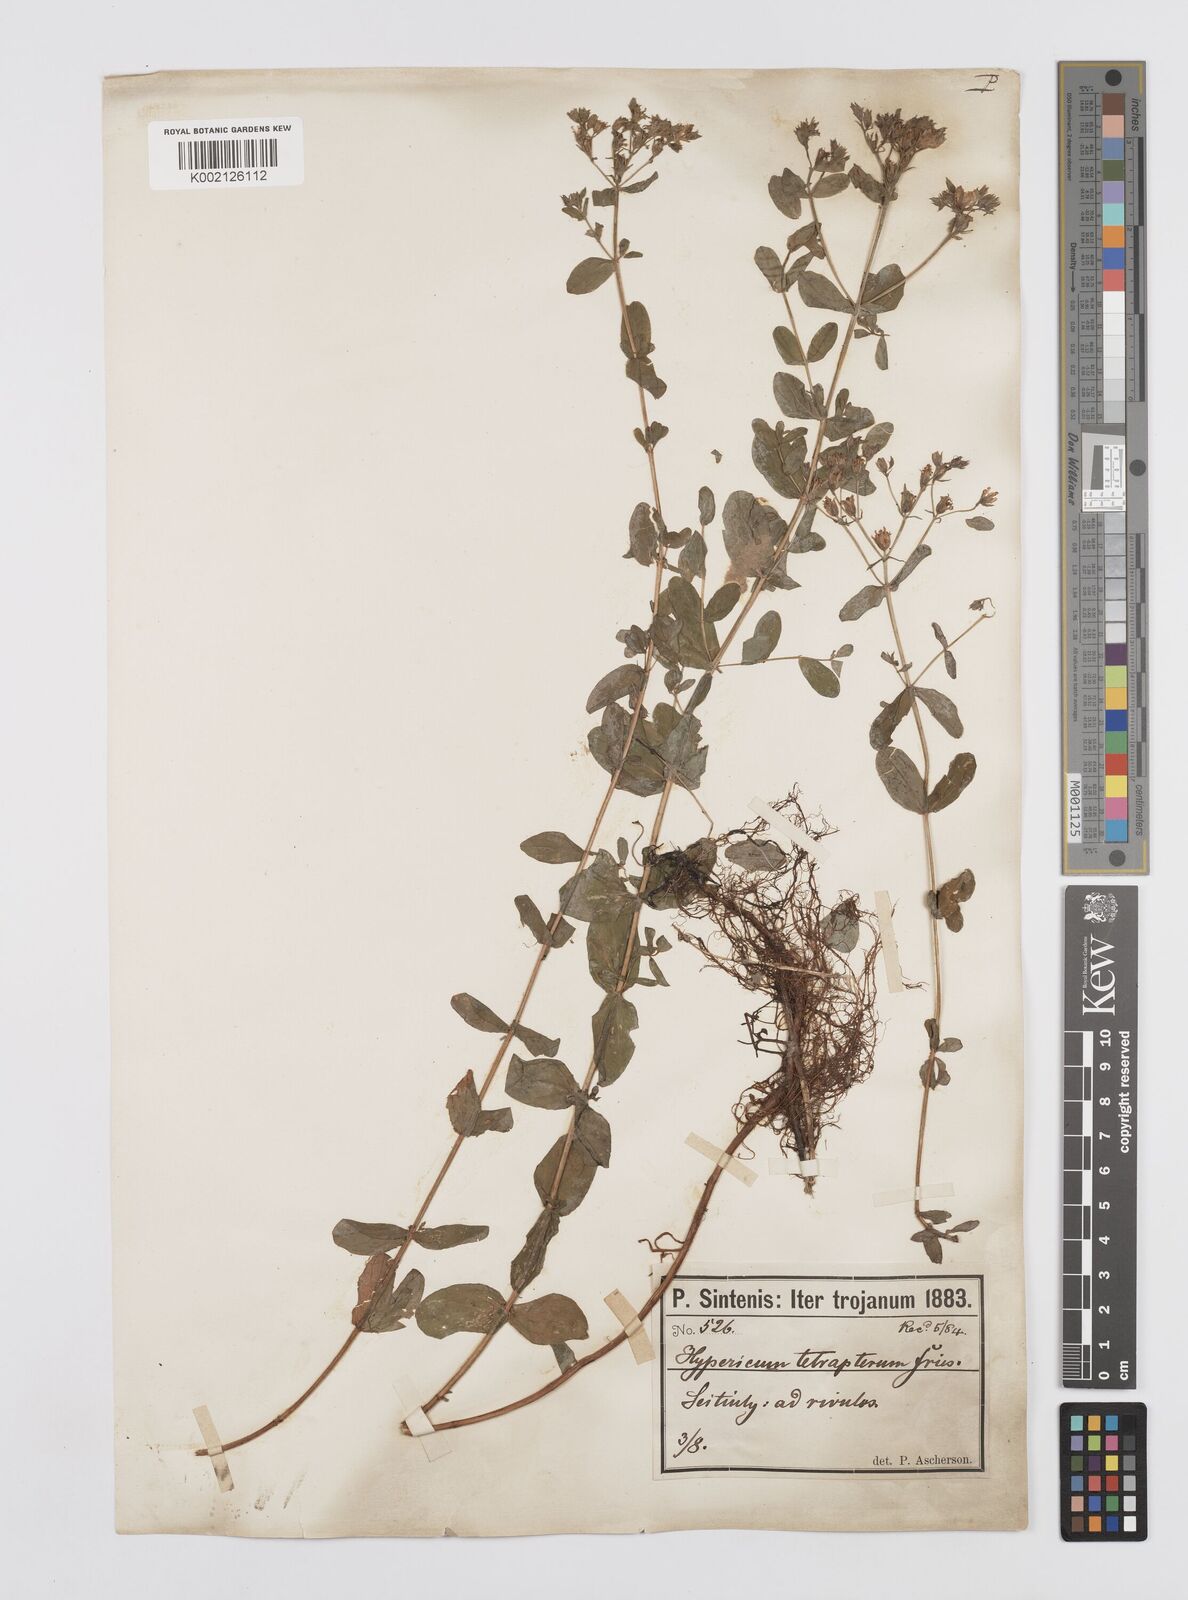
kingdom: Plantae
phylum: Tracheophyta
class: Magnoliopsida
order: Malpighiales
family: Hypericaceae
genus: Hypericum
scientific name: Hypericum tetrapterum
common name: Square-stalked st. john's-wort
